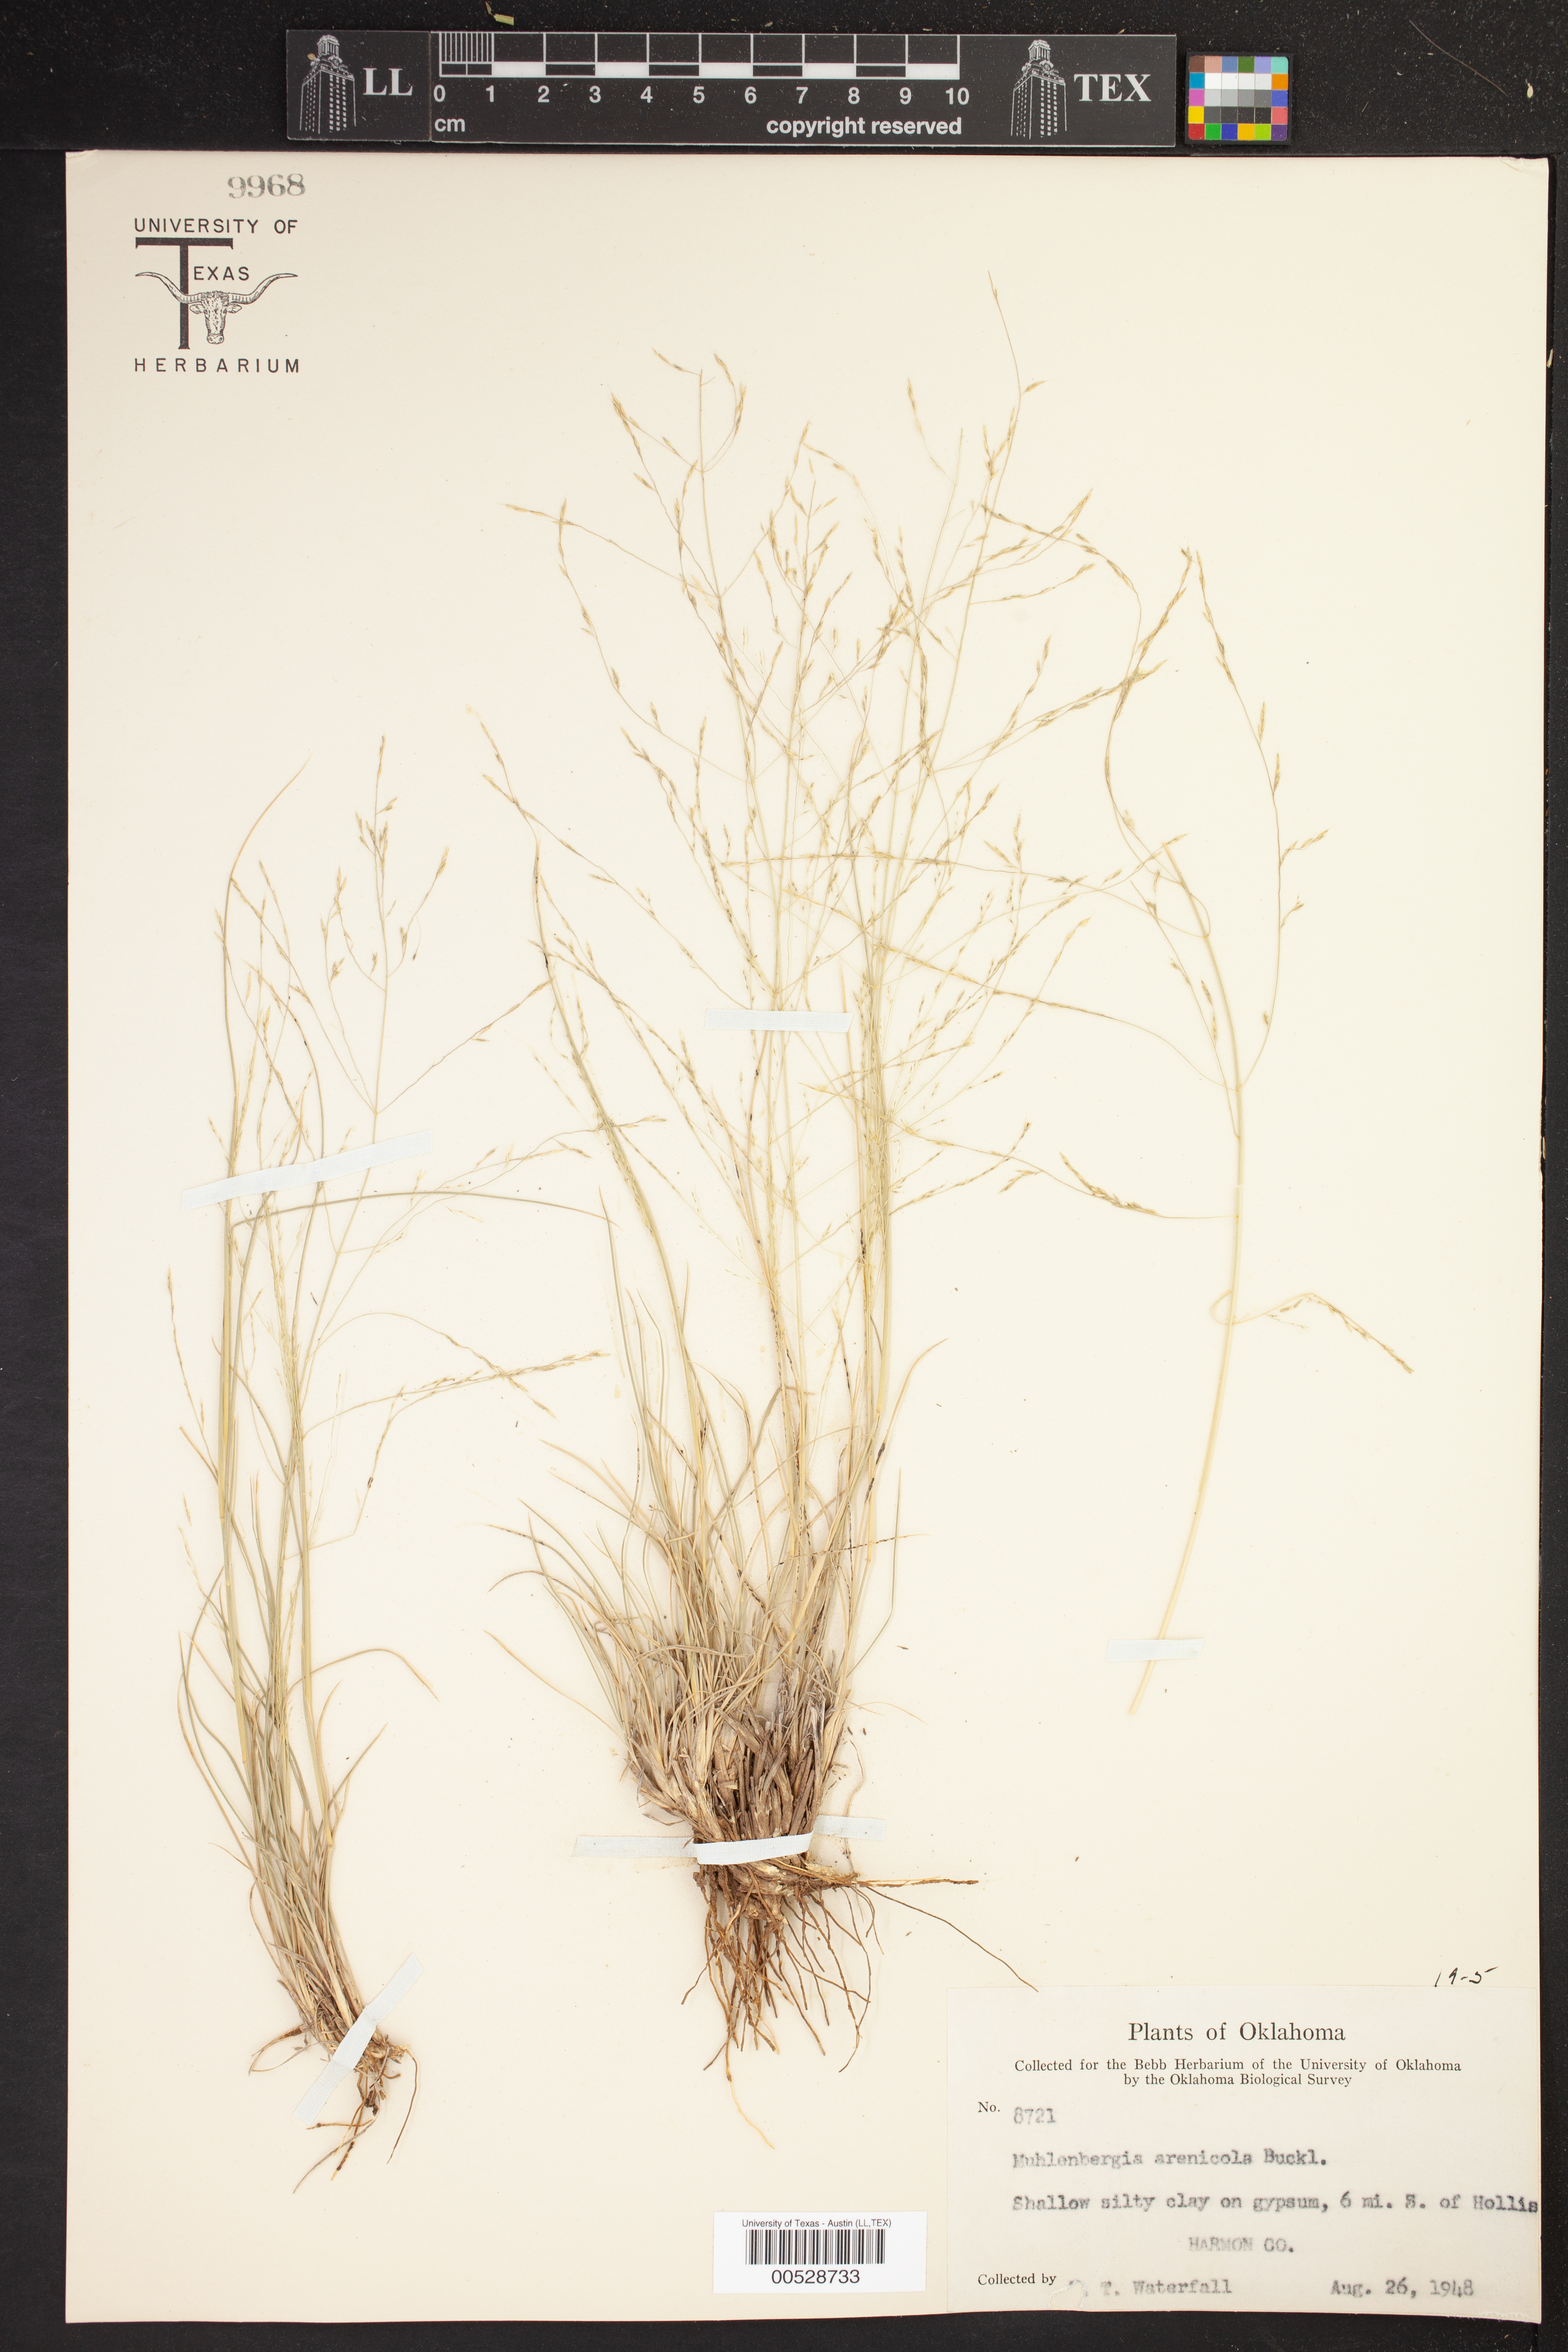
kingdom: Plantae
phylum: Tracheophyta
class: Liliopsida
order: Poales
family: Poaceae
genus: Muhlenbergia
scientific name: Muhlenbergia arenicola
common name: Sand muhly
